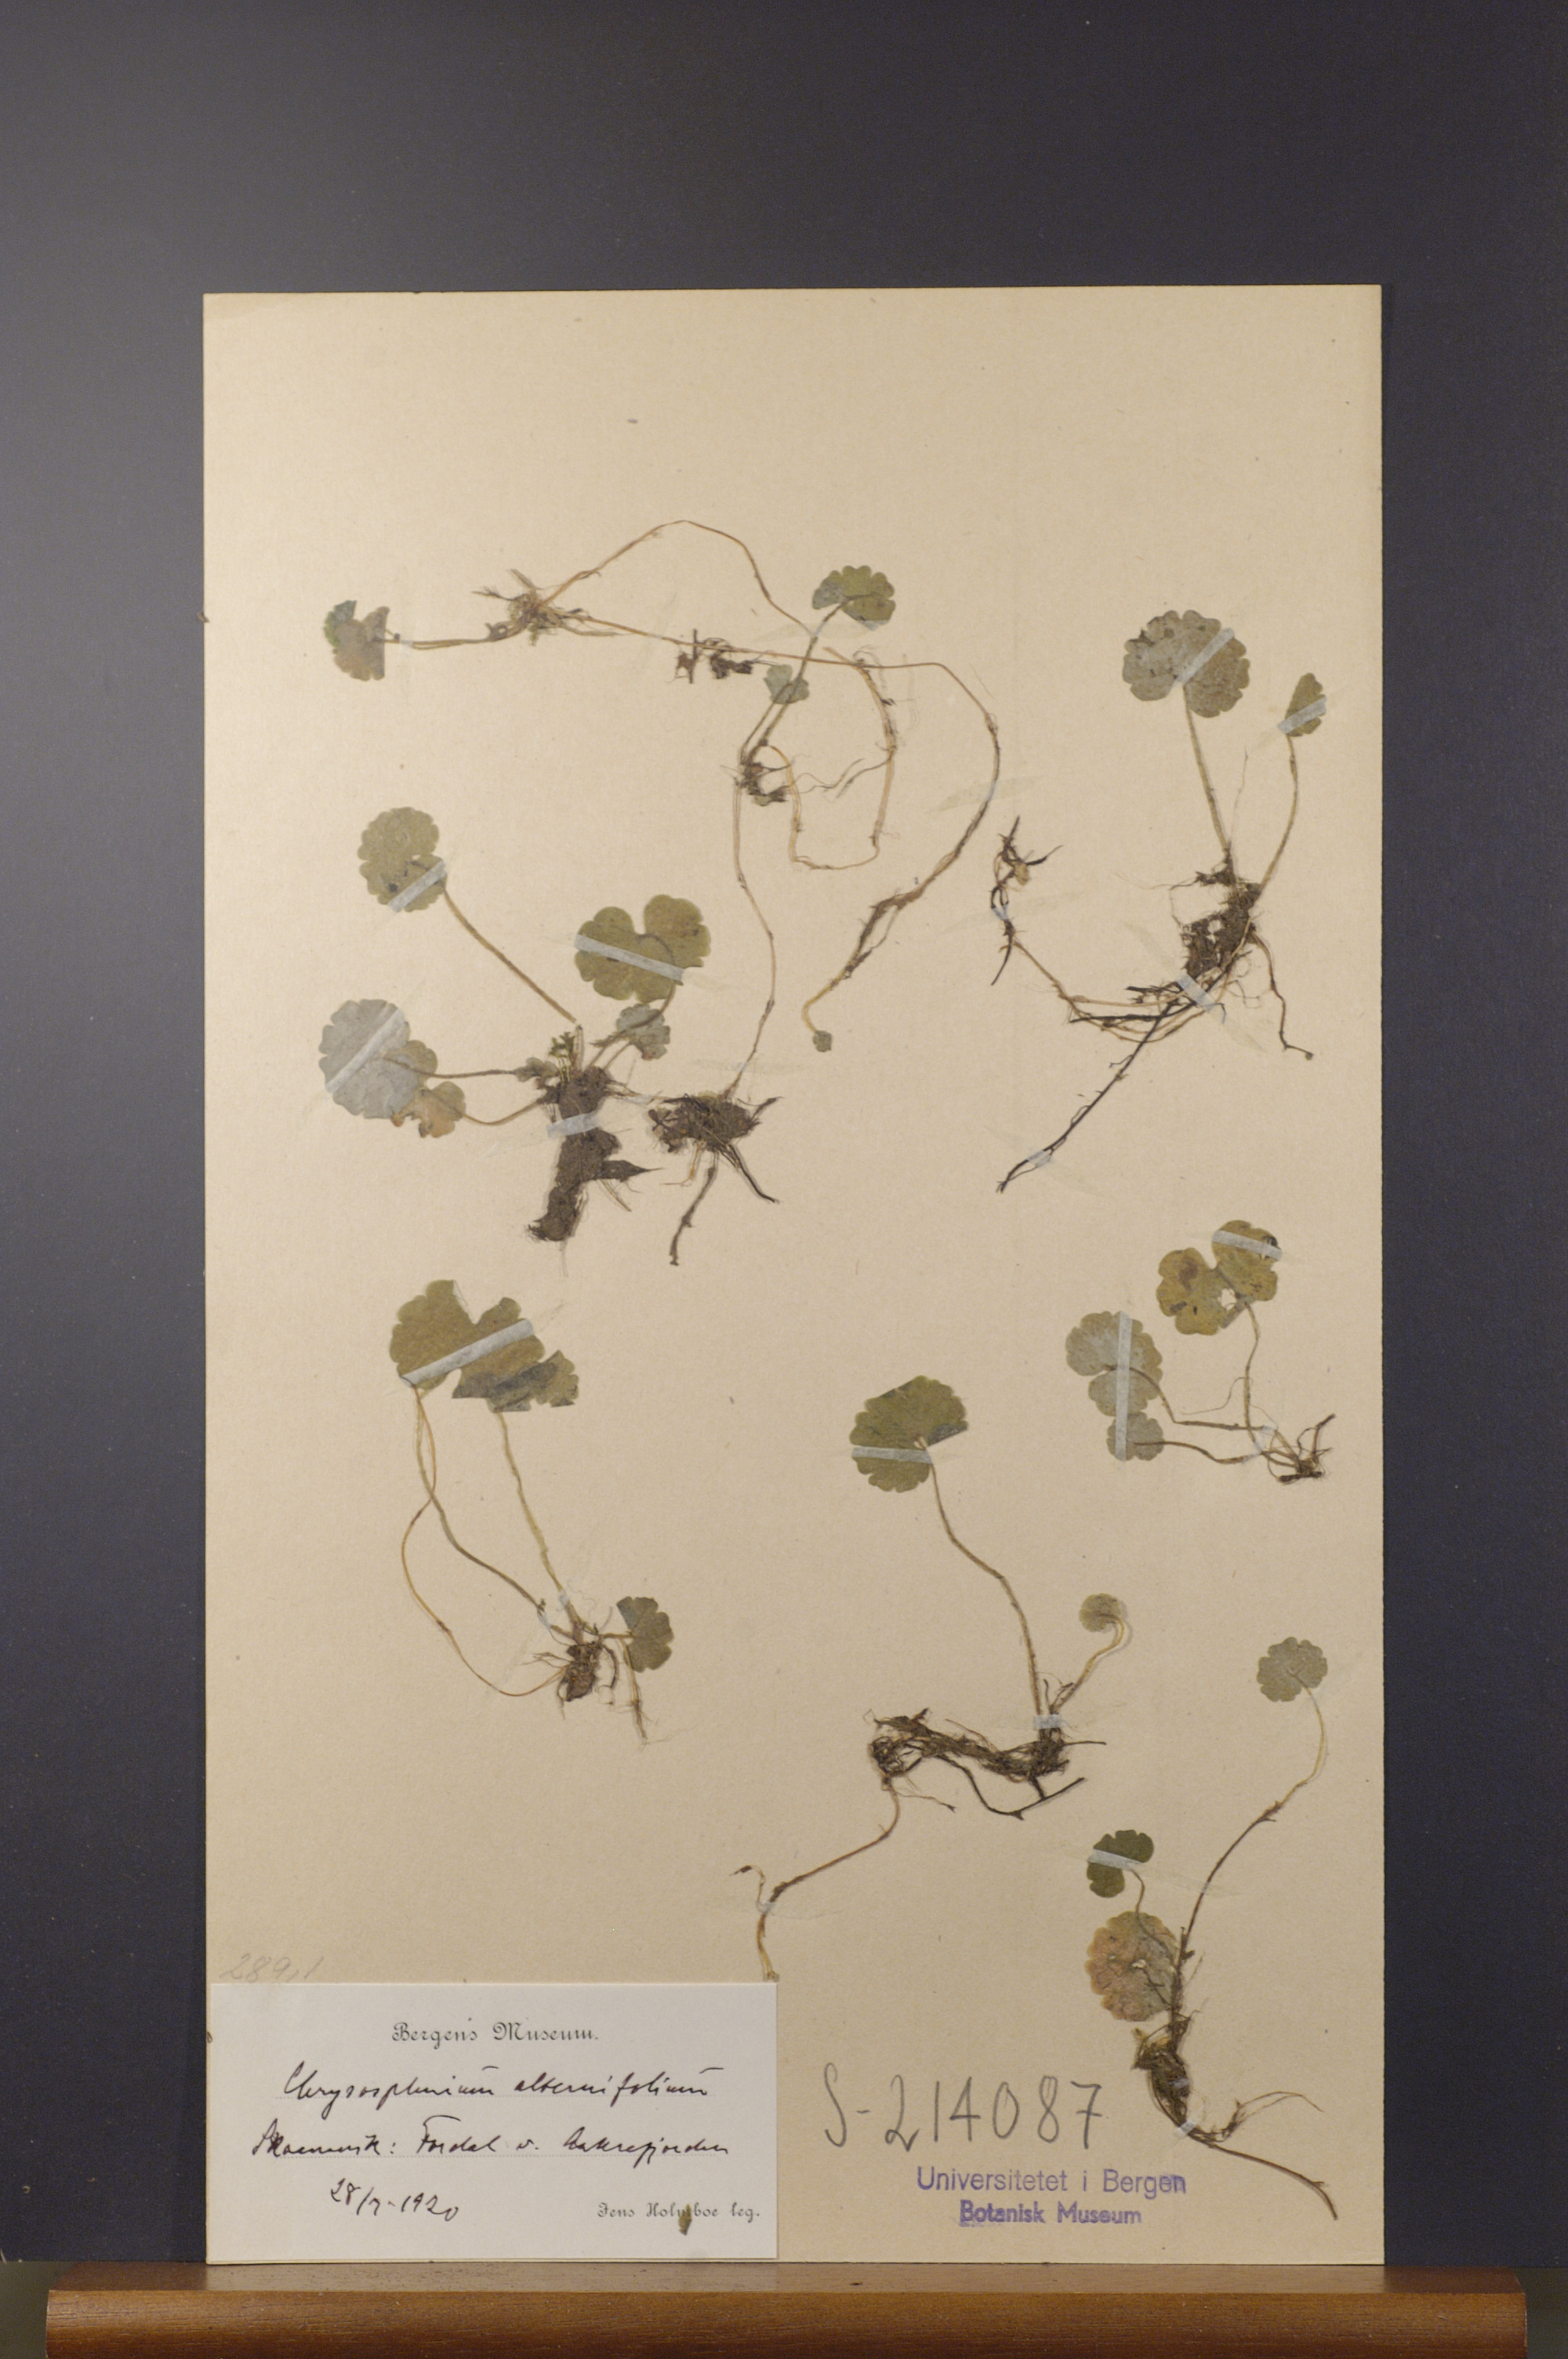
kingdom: Plantae
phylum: Tracheophyta
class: Magnoliopsida
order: Saxifragales
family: Saxifragaceae
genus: Chrysosplenium
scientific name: Chrysosplenium alternifolium
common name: Alternate-leaved golden-saxifrage
